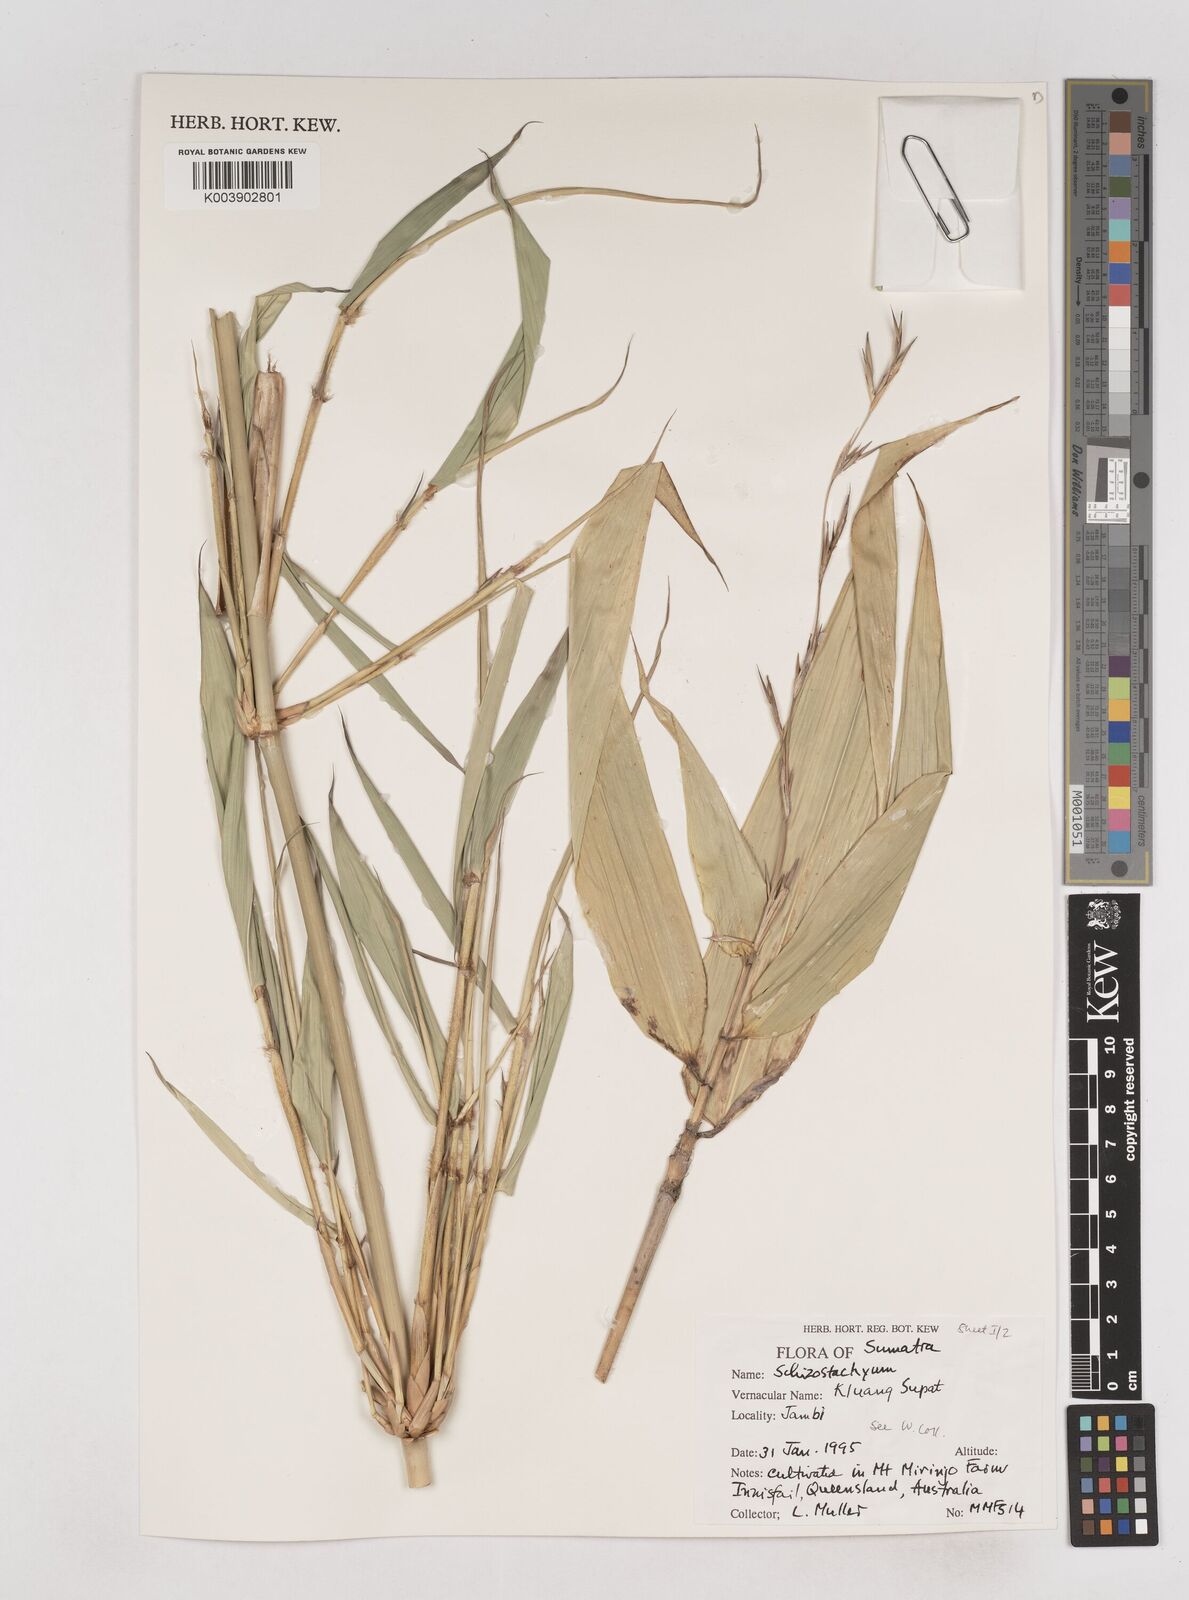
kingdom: Plantae
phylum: Tracheophyta
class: Liliopsida
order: Poales
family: Poaceae
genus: Schizostachyum
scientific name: Schizostachyum
